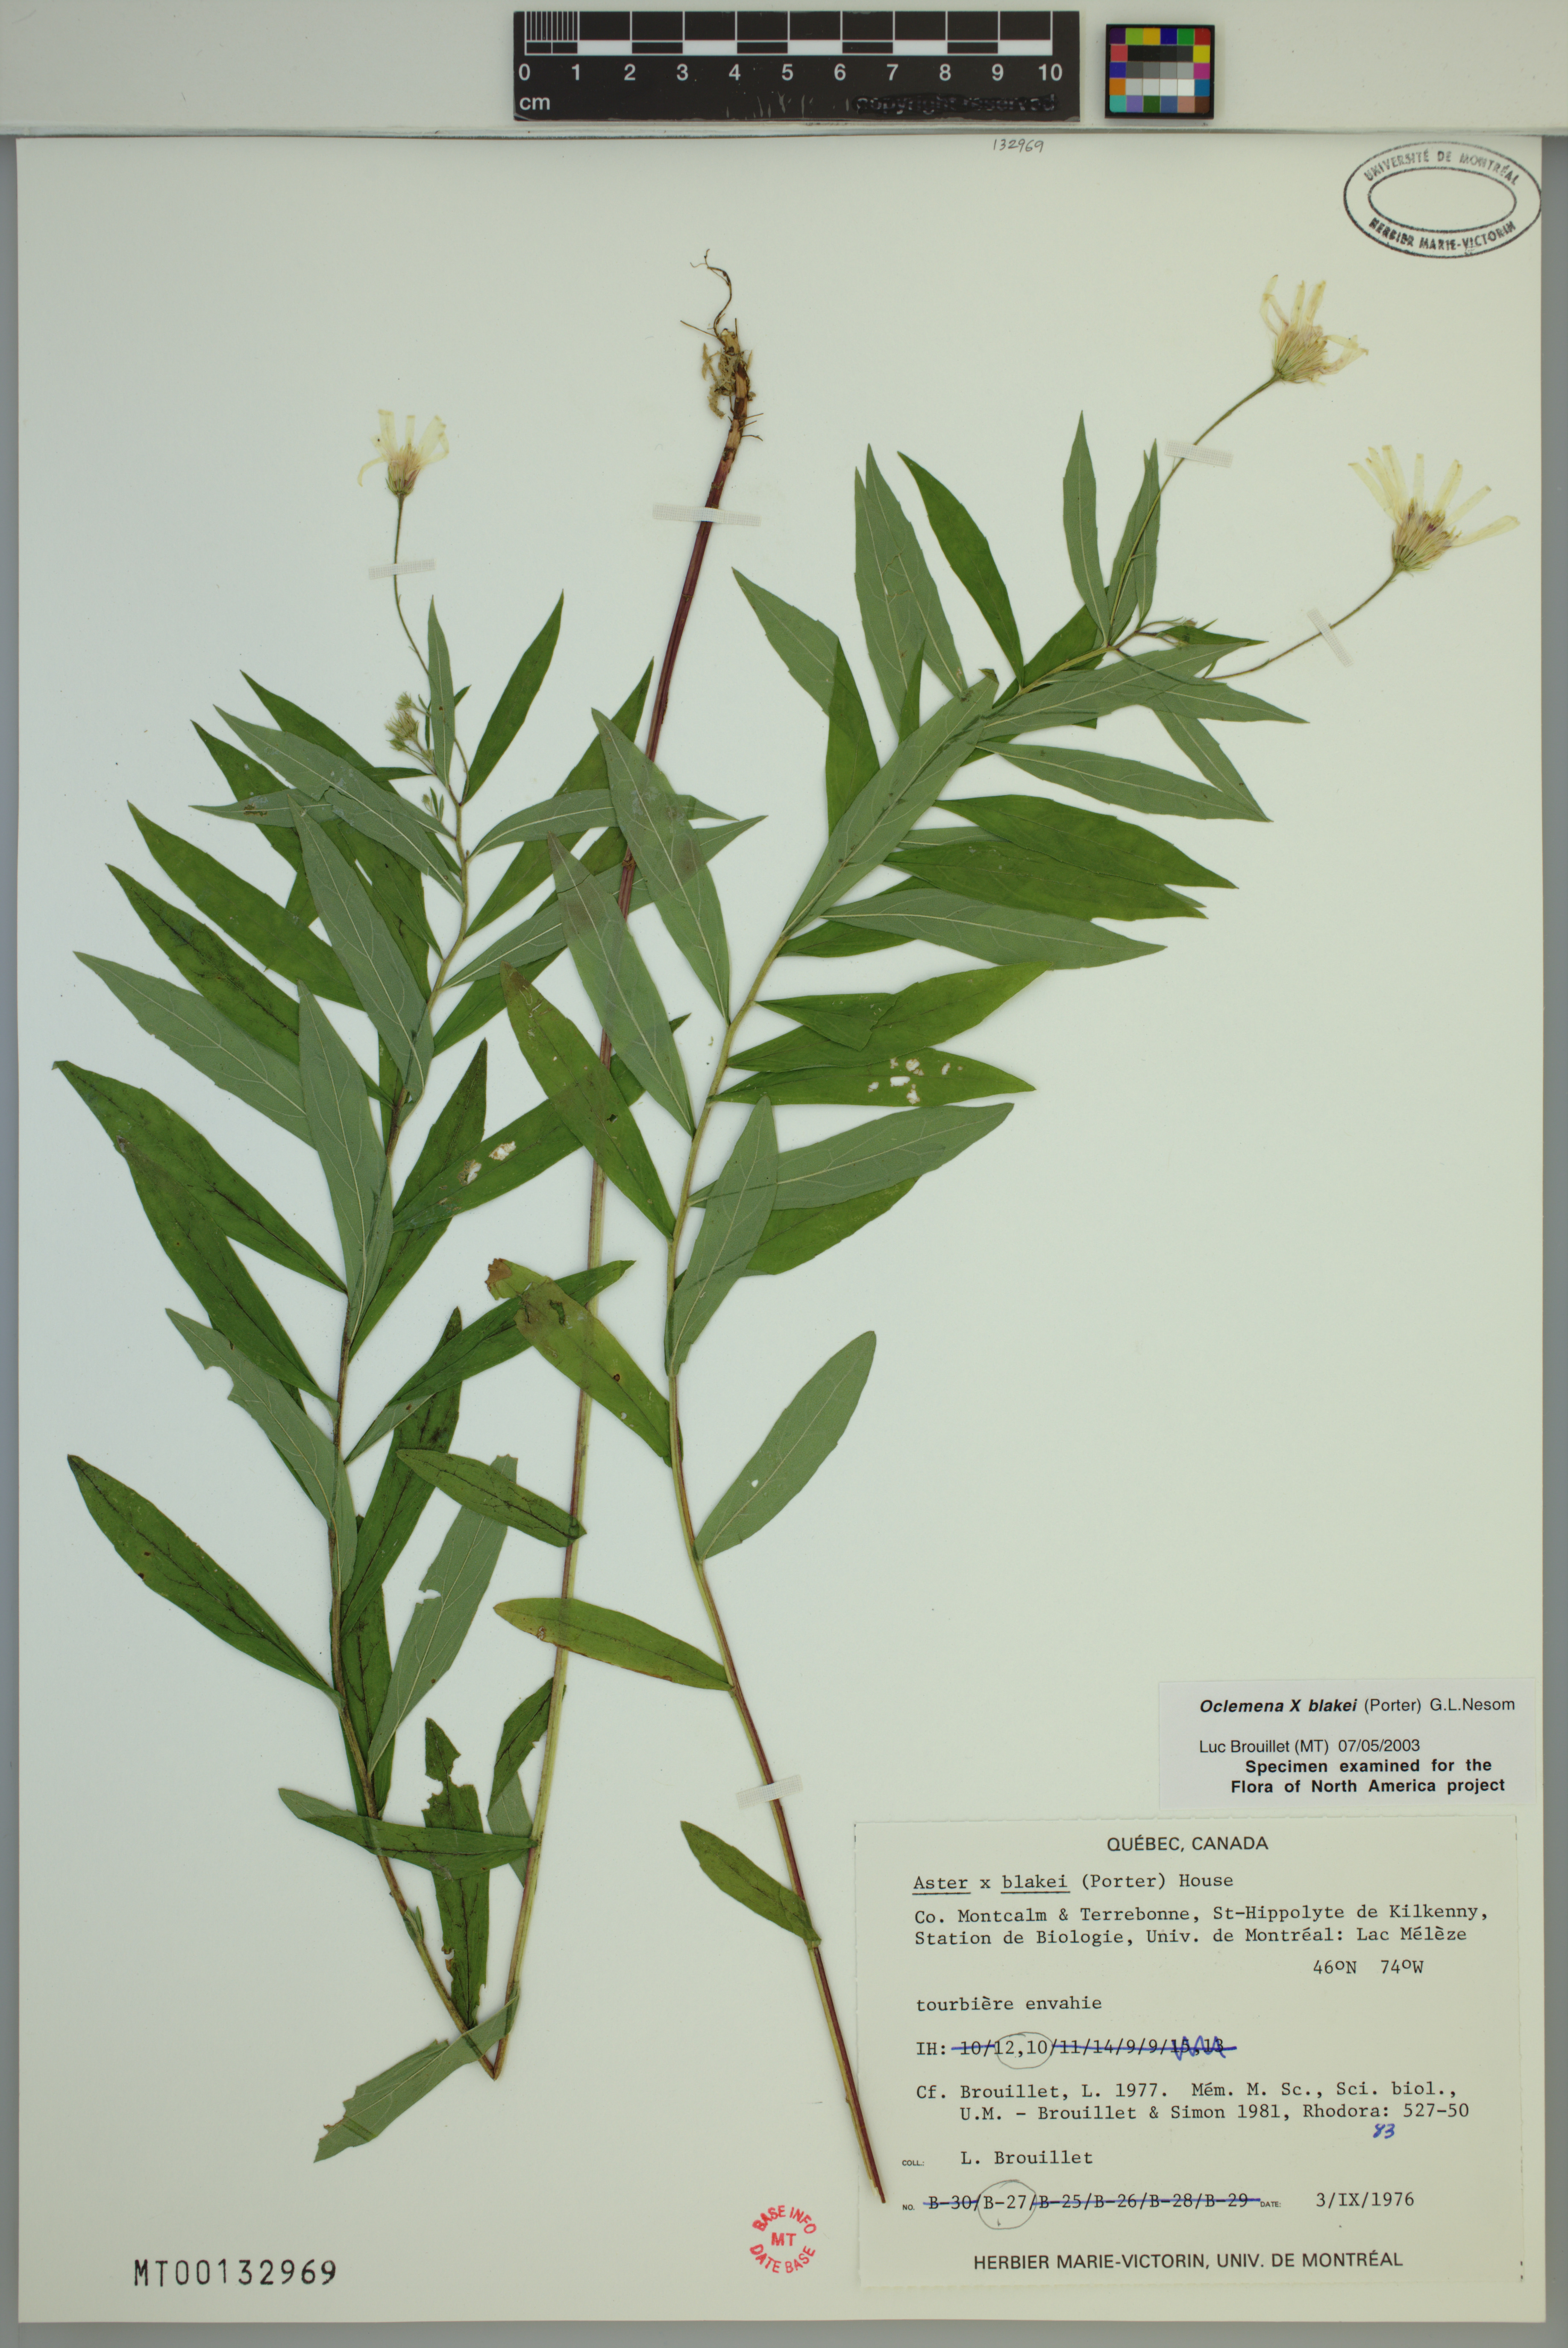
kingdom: Plantae
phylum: Tracheophyta
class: Magnoliopsida
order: Asterales
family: Asteraceae
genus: Oclemena
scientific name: Oclemena blakei
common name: Blake's aster
